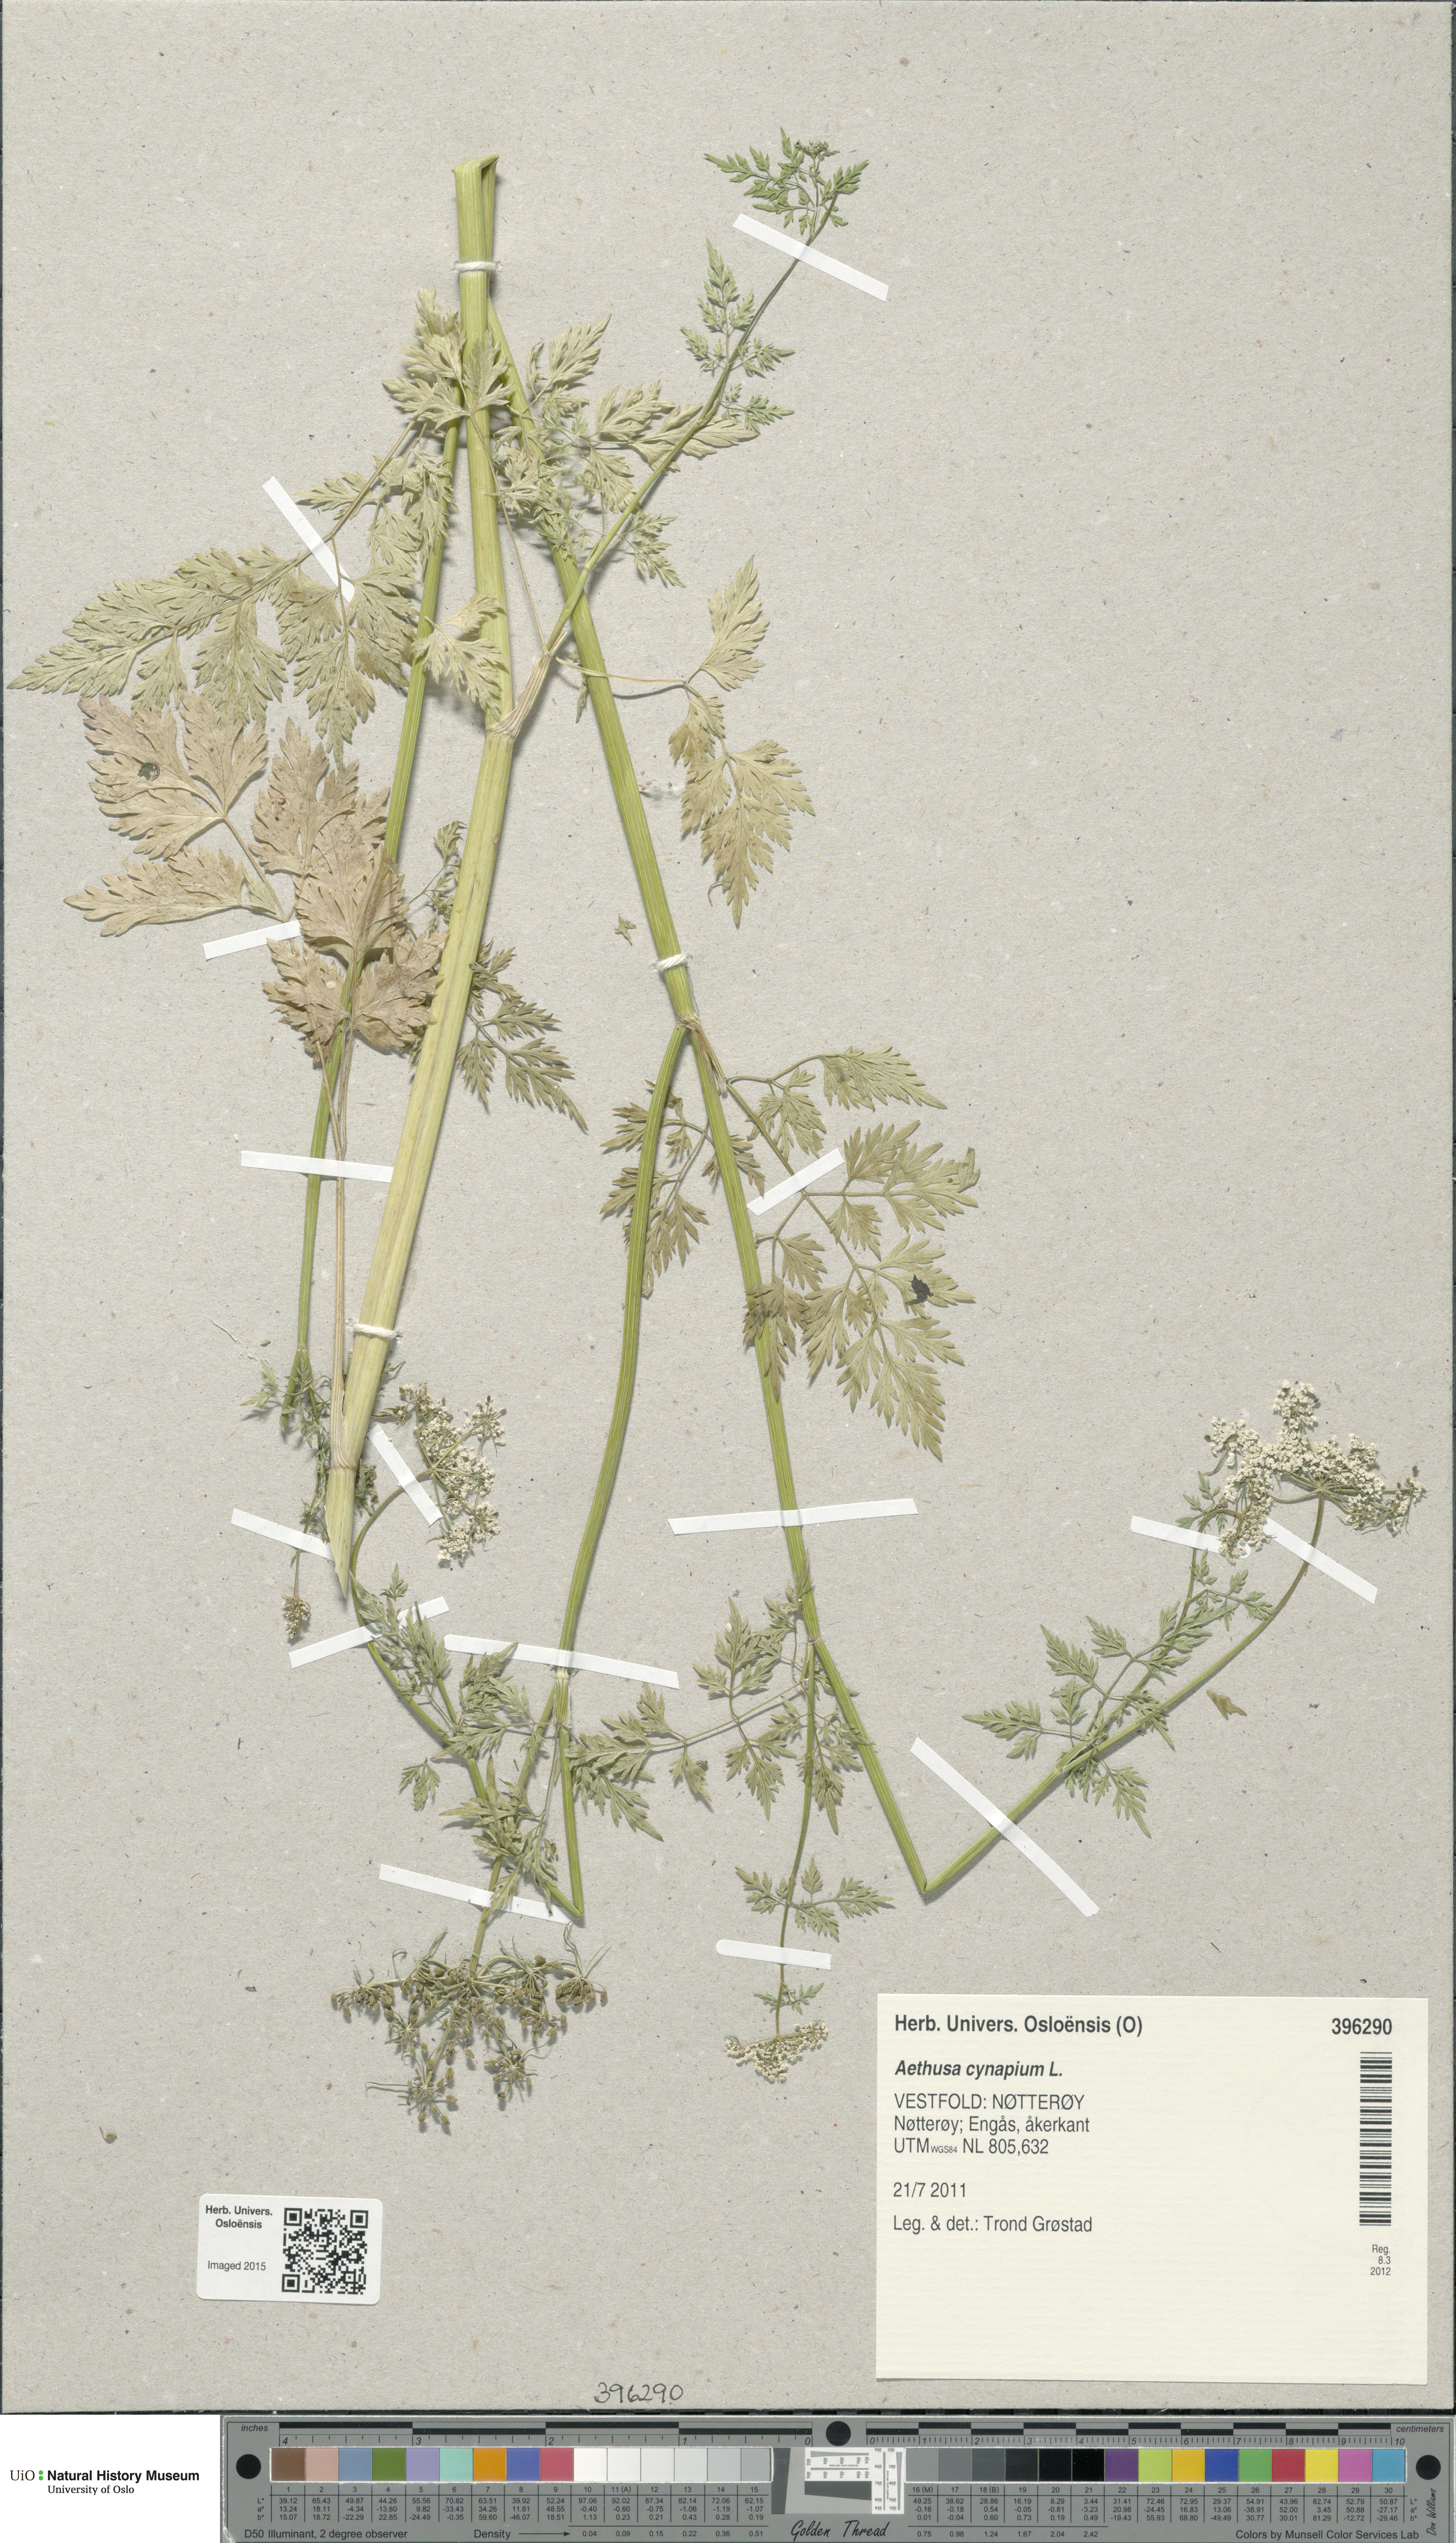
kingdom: Plantae
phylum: Tracheophyta
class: Magnoliopsida
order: Apiales
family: Apiaceae
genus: Aethusa
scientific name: Aethusa cynapium
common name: Fool's parsley
